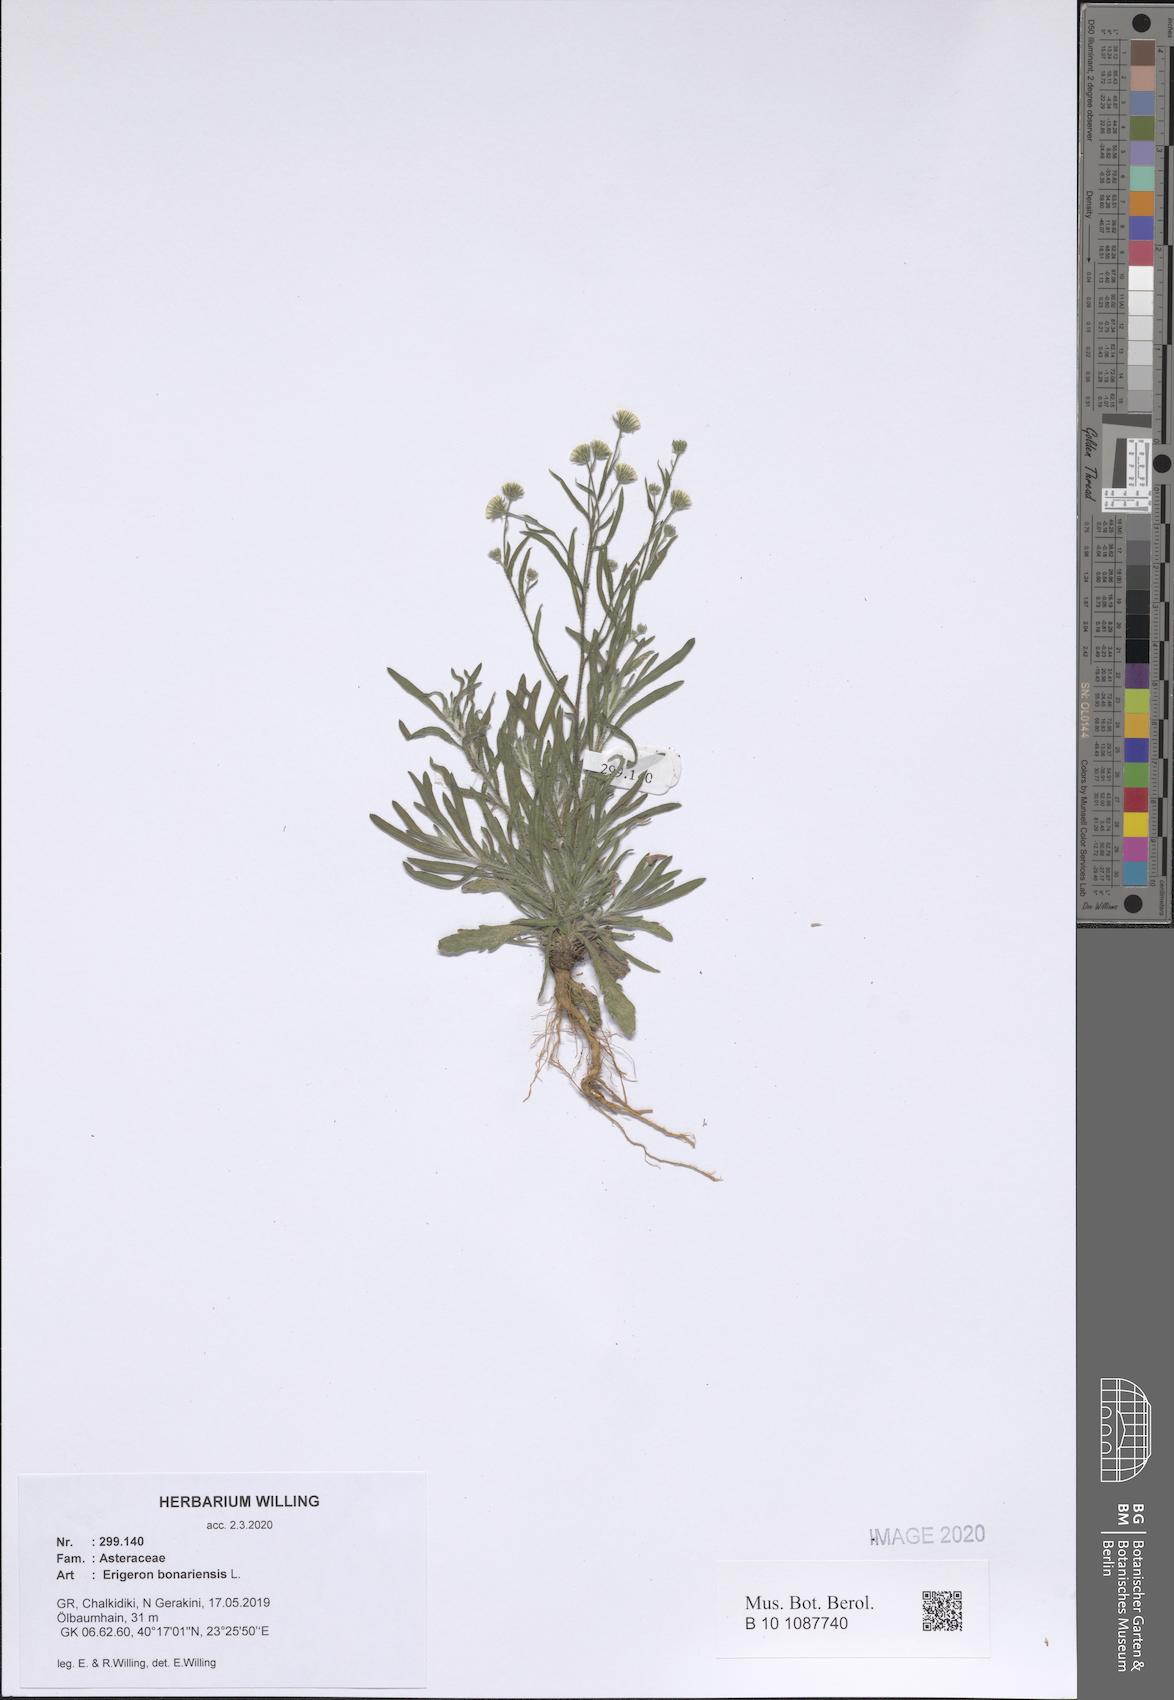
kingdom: Plantae
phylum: Tracheophyta
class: Magnoliopsida
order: Asterales
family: Asteraceae
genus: Erigeron
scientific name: Erigeron bonariensis
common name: Argentine fleabane
